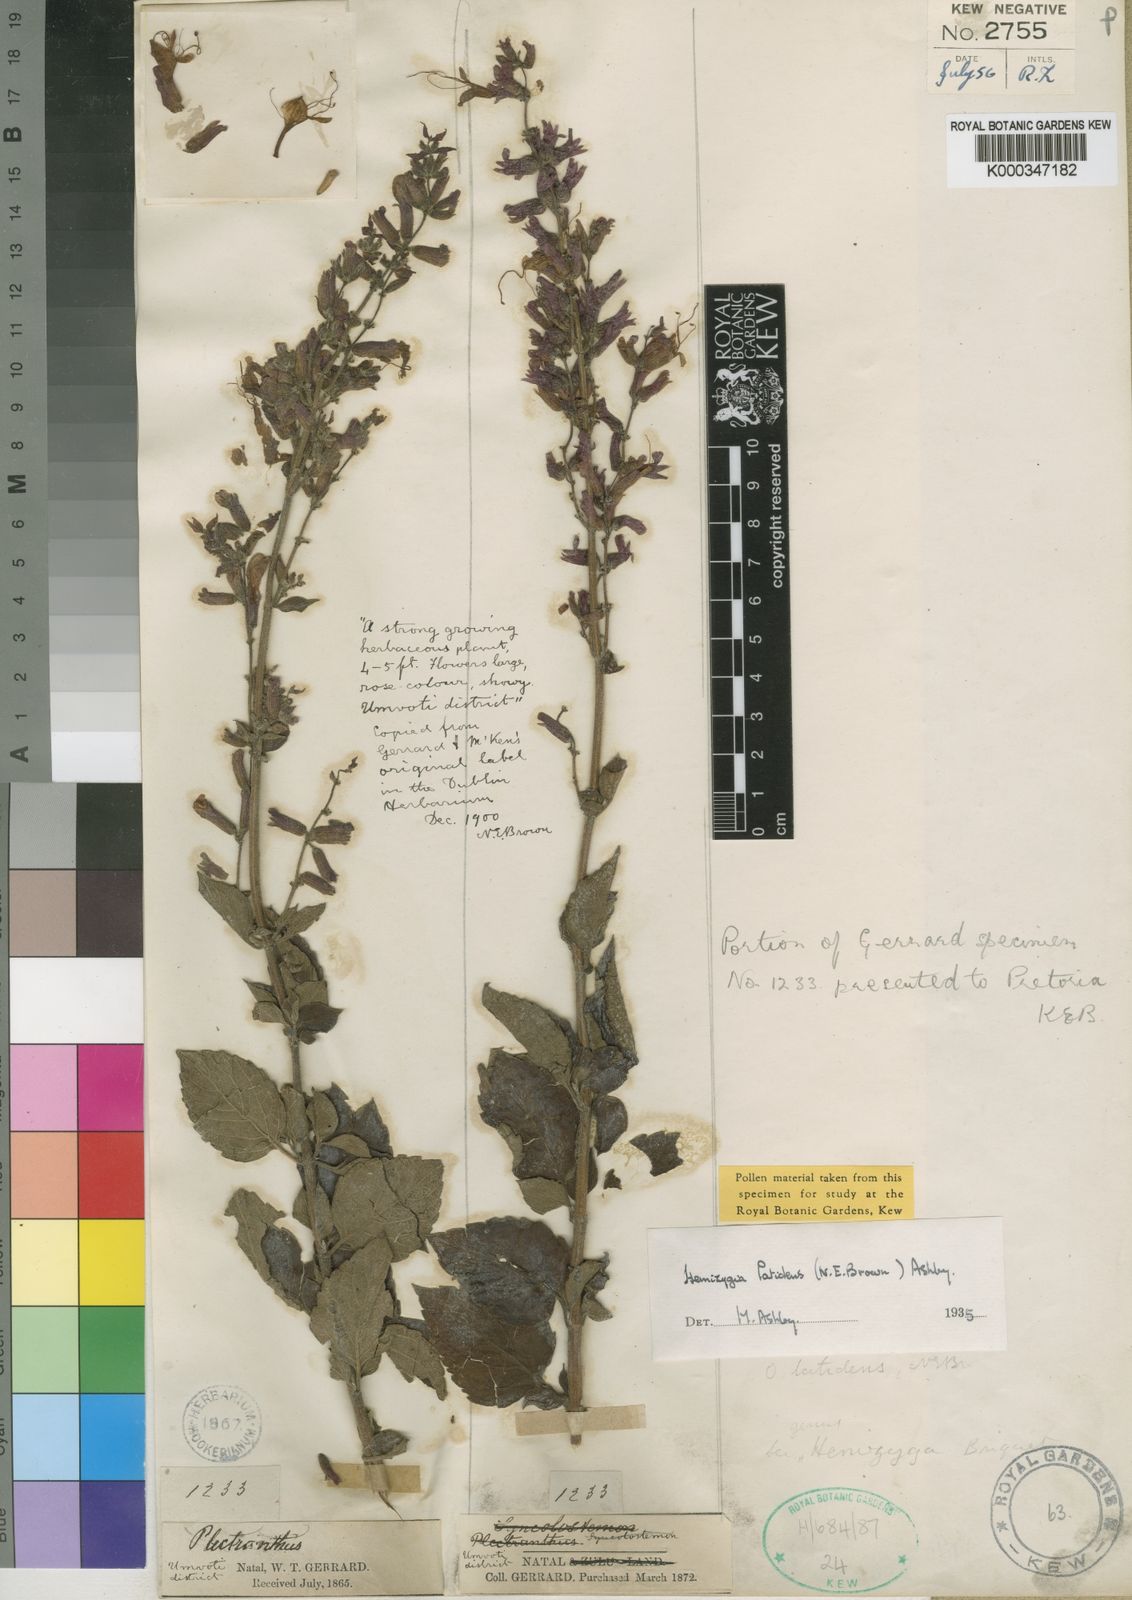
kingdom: Plantae
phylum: Tracheophyta
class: Magnoliopsida
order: Lamiales
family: Lamiaceae
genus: Syncolostemon
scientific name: Syncolostemon latidens
